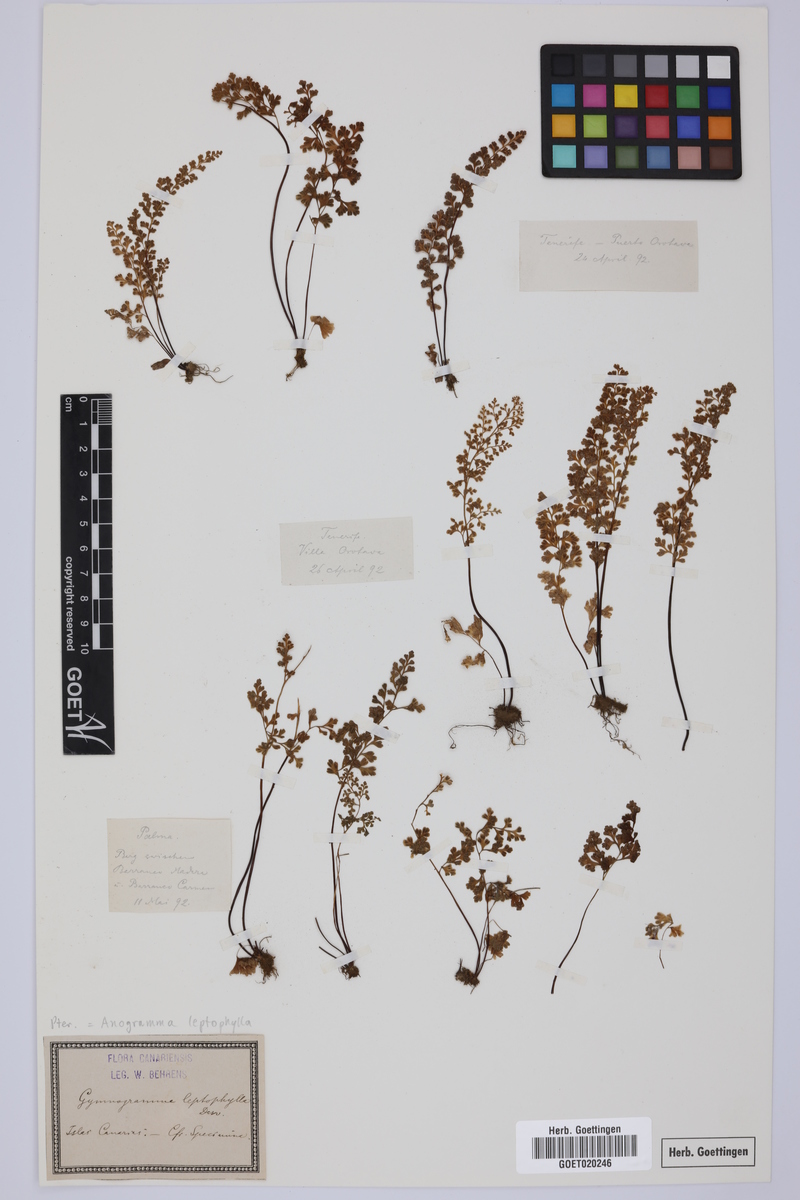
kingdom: Plantae
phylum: Tracheophyta
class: Polypodiopsida
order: Polypodiales
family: Pteridaceae
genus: Anogramma
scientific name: Anogramma leptophylla
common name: Jersey fern
